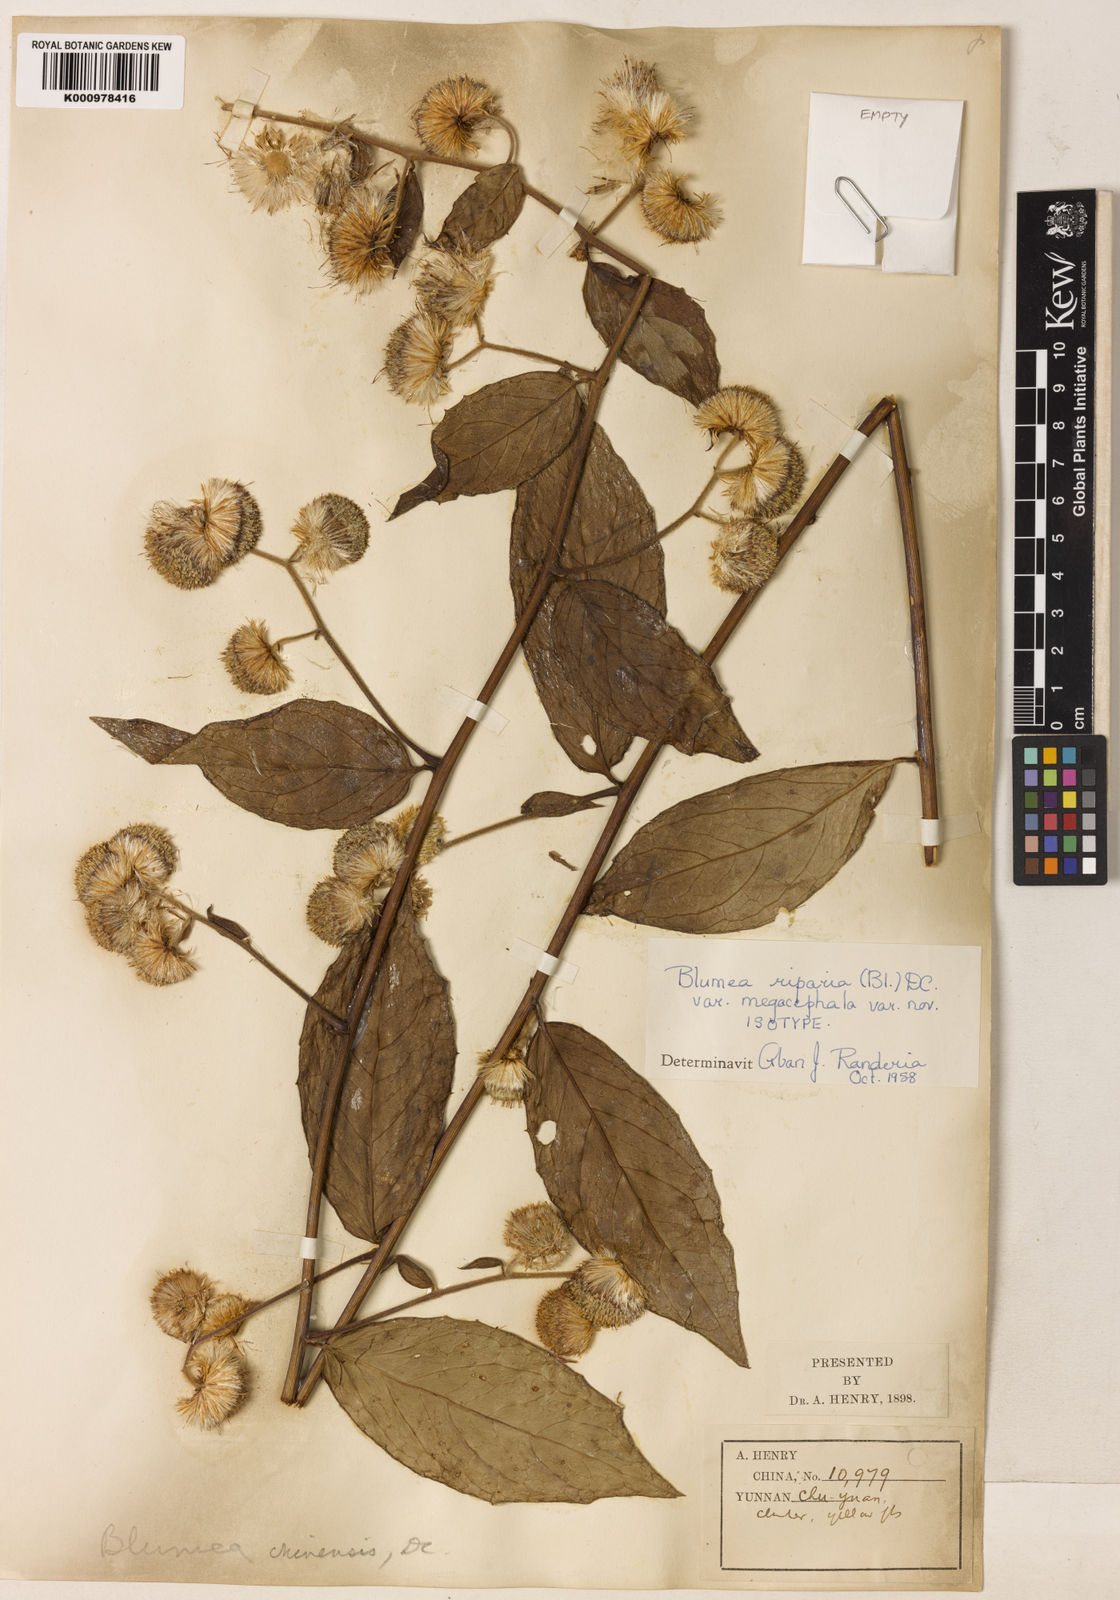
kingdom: Plantae
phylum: Tracheophyta
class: Magnoliopsida
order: Asterales
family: Asteraceae
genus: Blumea
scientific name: Blumea megacephala
